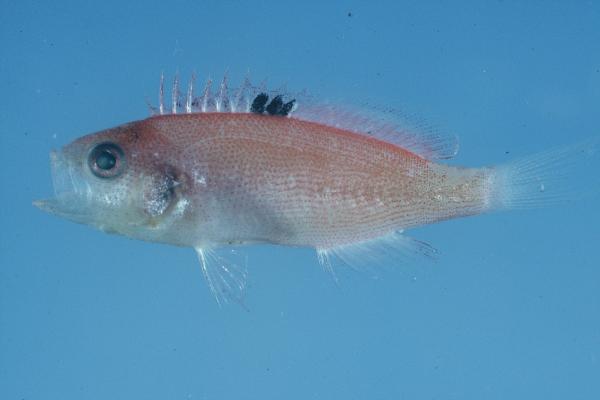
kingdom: Animalia
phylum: Chordata
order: Perciformes
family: Serranidae
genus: Nemanthias
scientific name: Nemanthias carberryi
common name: Threadfin anthias
